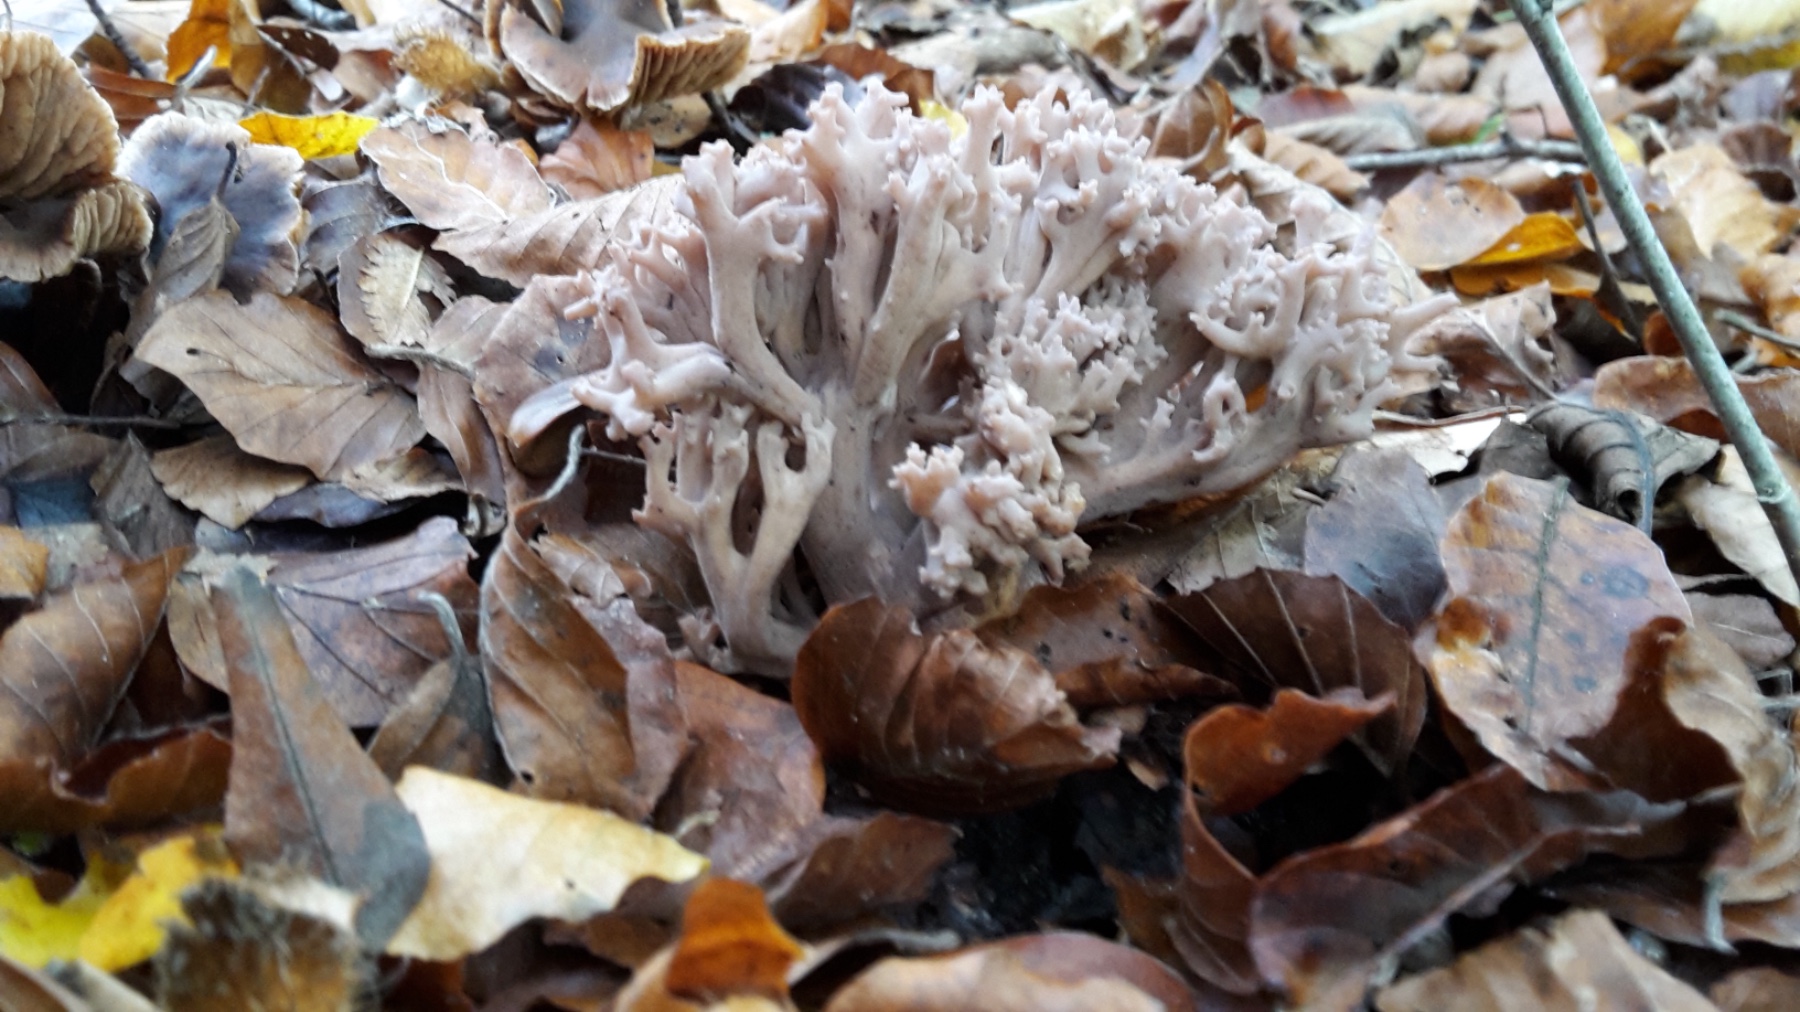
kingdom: Fungi
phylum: Basidiomycota
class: Agaricomycetes
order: Gomphales
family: Gomphaceae
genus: Ramaria
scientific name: Ramaria fumigata
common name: violet koralsvamp
